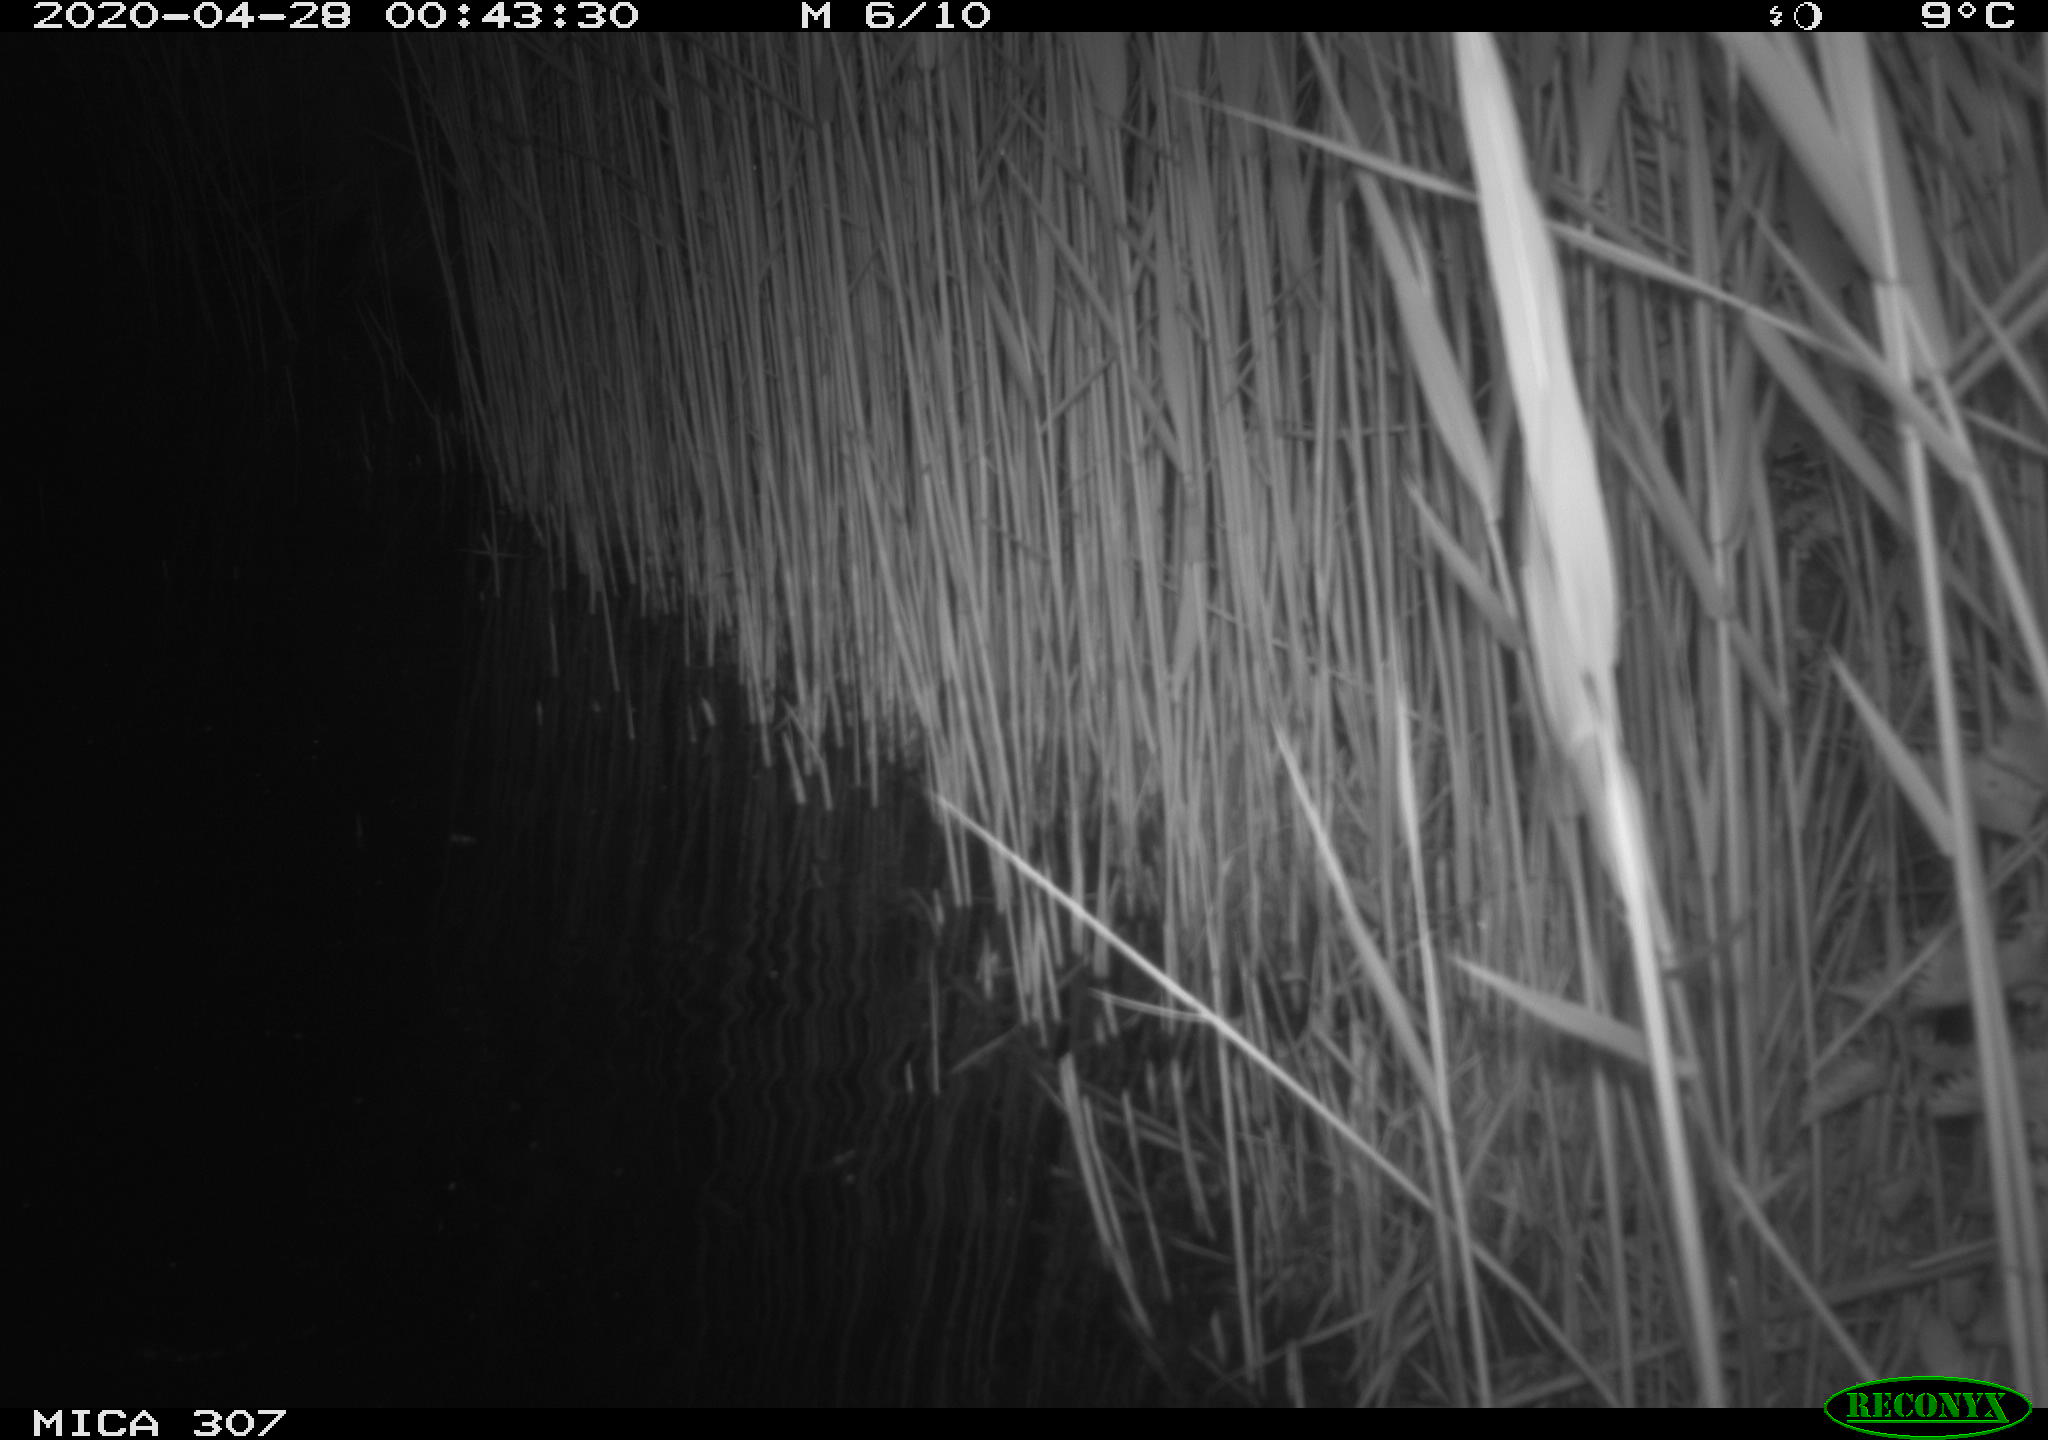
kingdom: Animalia
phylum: Chordata
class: Aves
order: Anseriformes
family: Anatidae
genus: Anas
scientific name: Anas platyrhynchos
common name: Mallard
